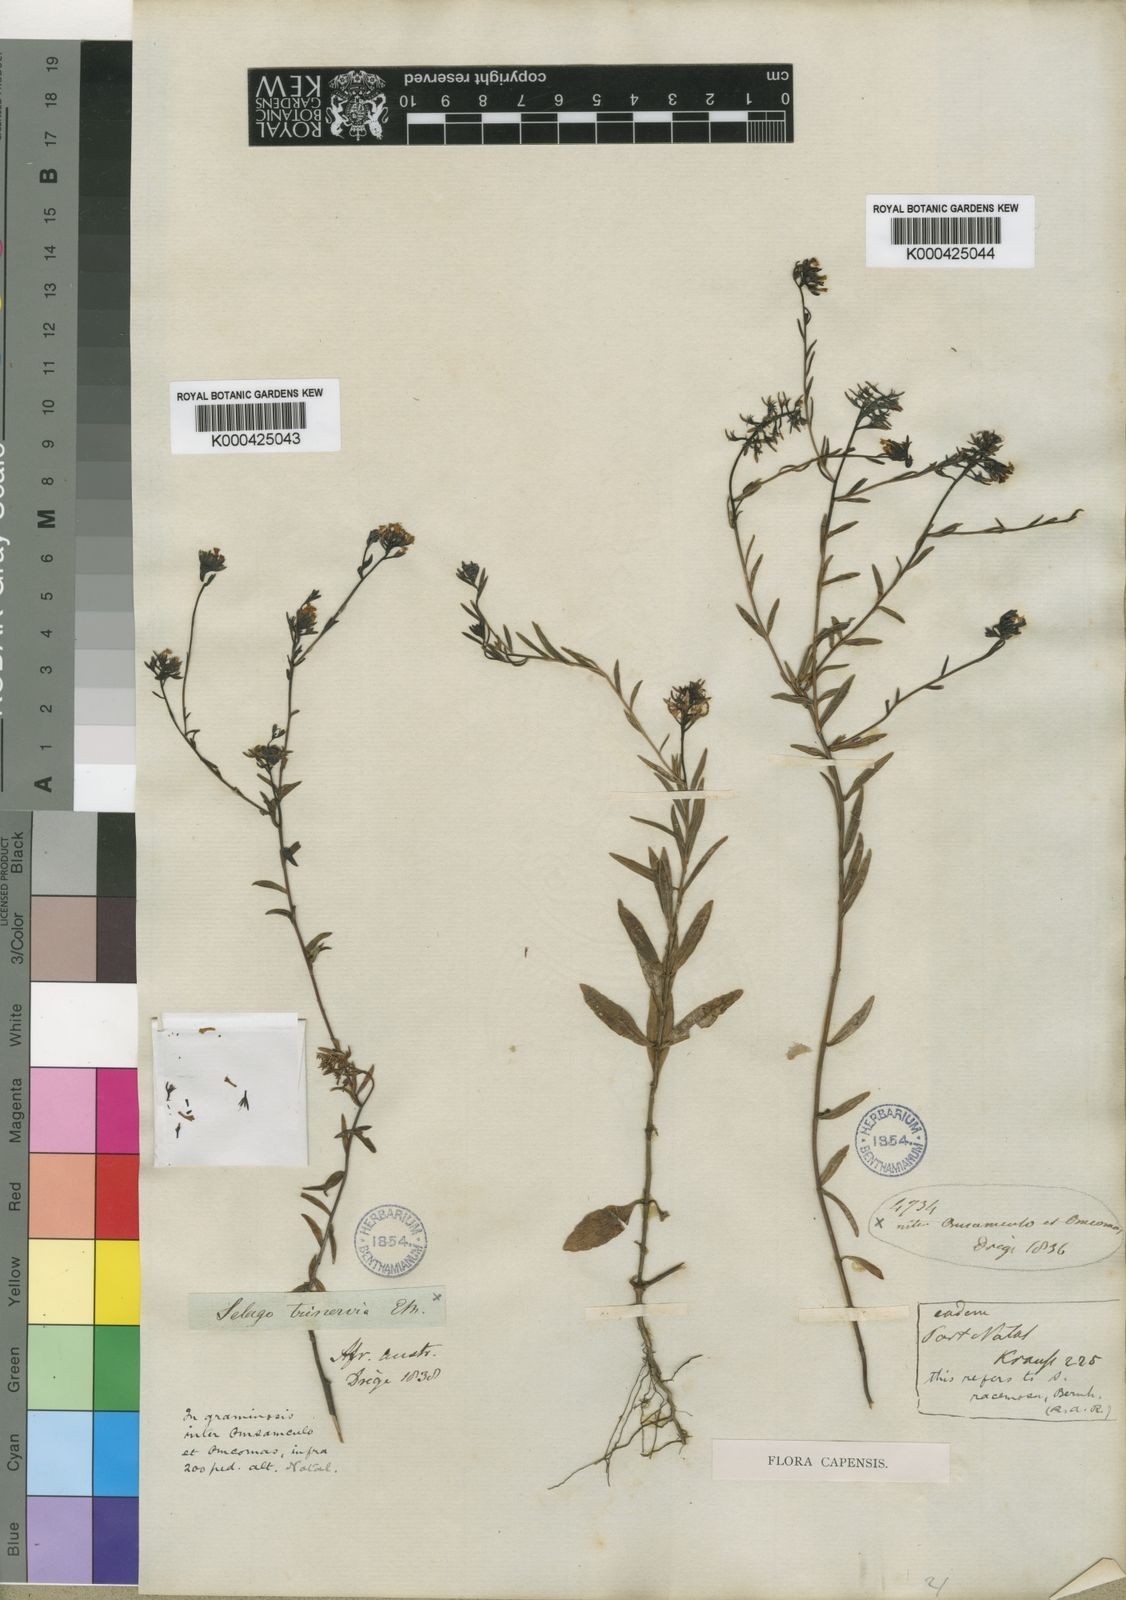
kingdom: Plantae
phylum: Tracheophyta
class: Magnoliopsida
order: Lamiales
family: Scrophulariaceae
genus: Selago
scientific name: Selago trinervia
